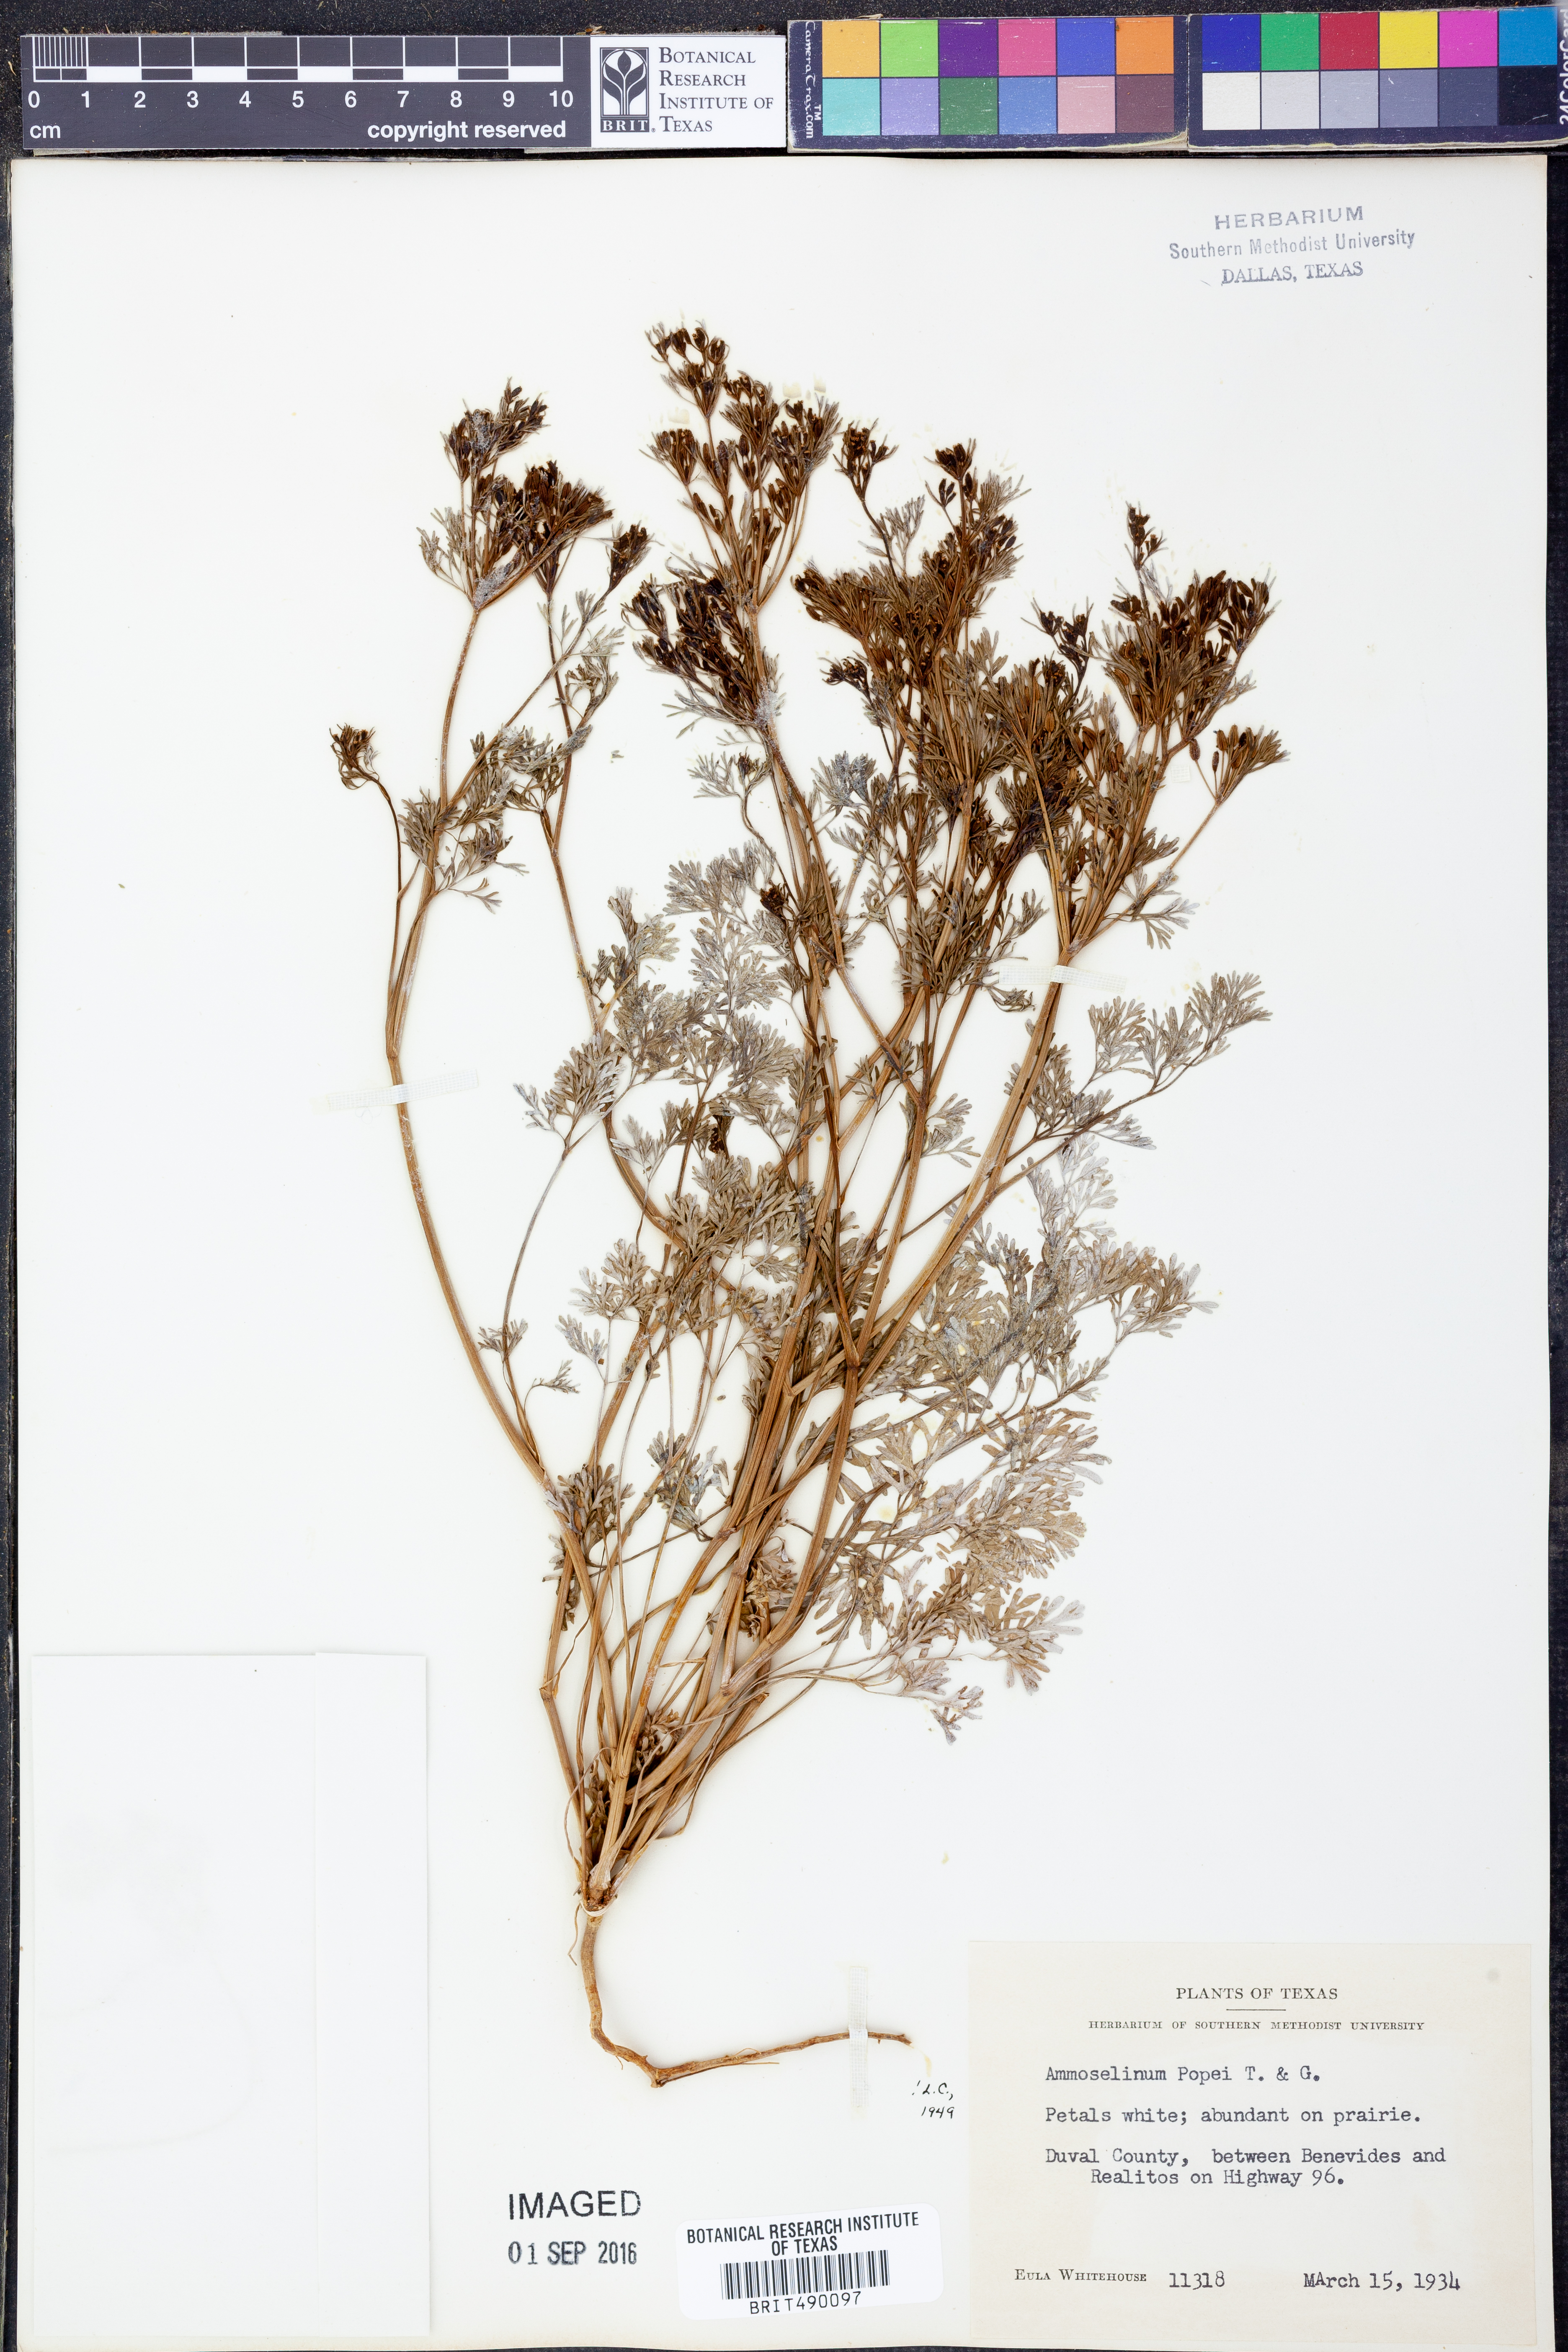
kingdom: Plantae
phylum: Tracheophyta
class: Magnoliopsida
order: Apiales
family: Apiaceae
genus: Ammoselinum
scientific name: Ammoselinum popei
